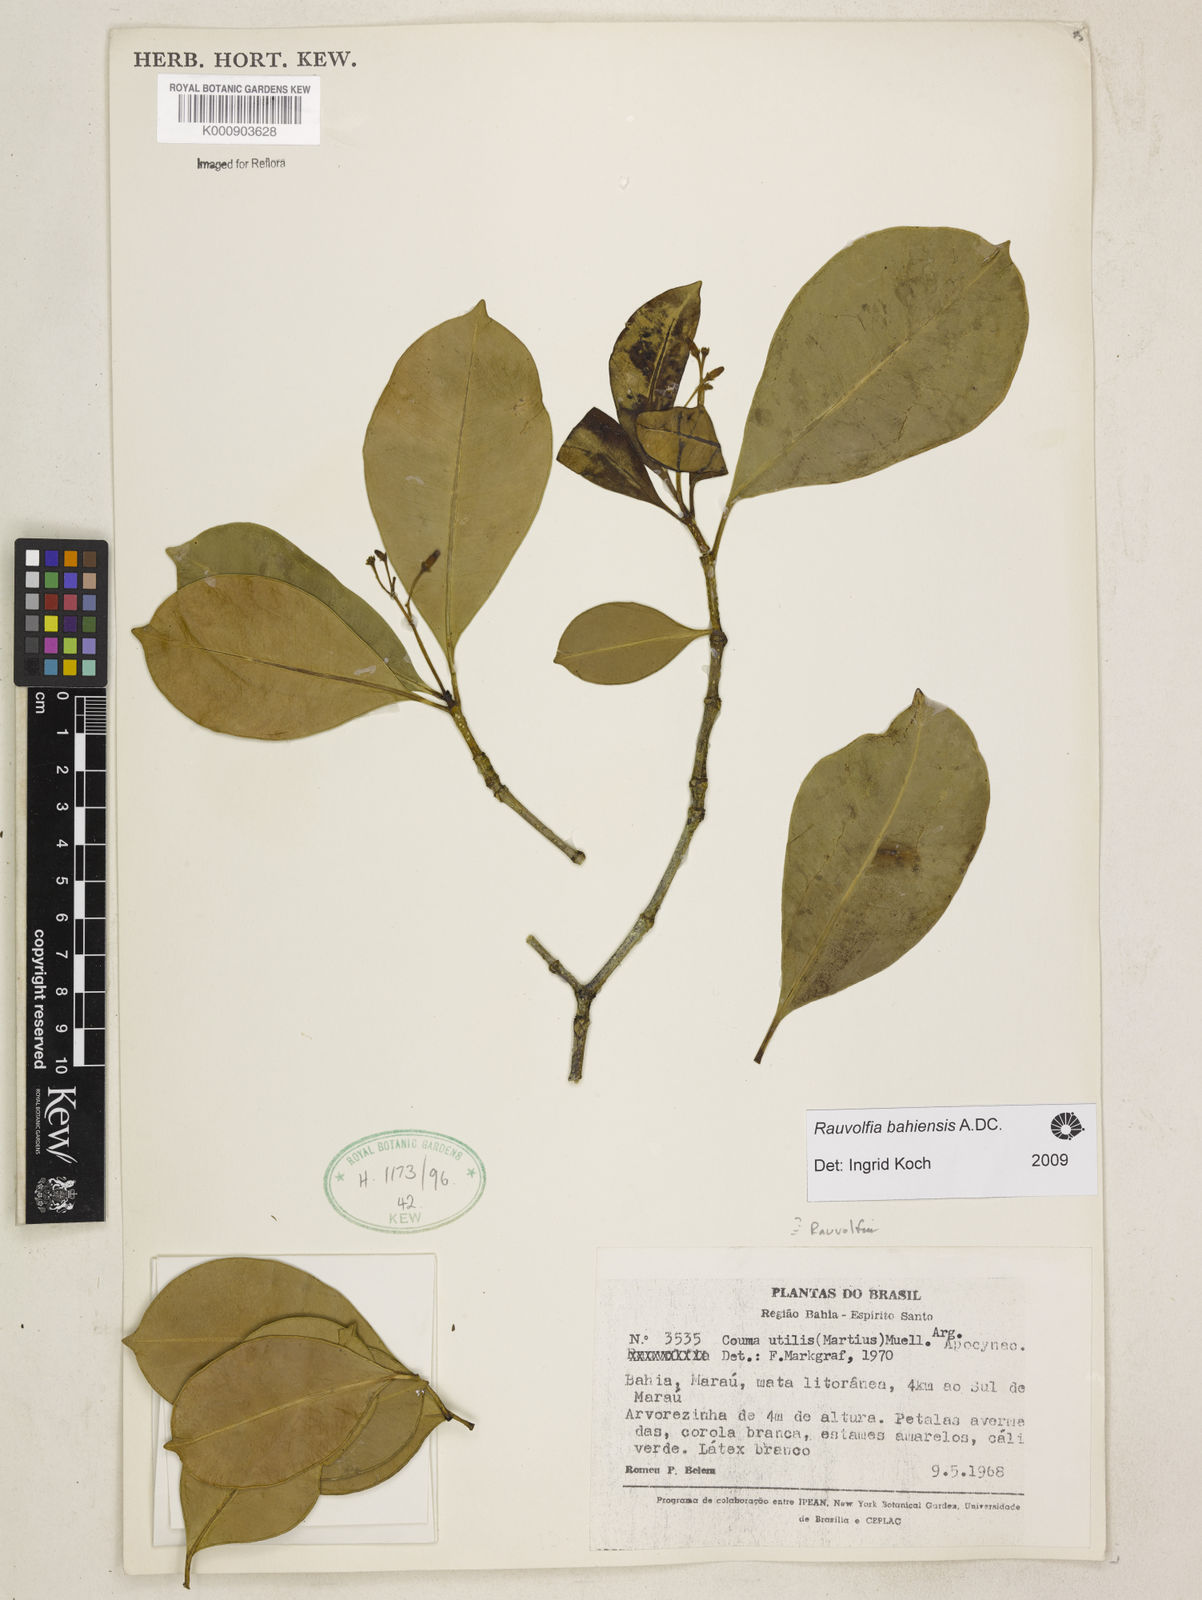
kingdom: Plantae
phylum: Tracheophyta
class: Magnoliopsida
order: Gentianales
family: Apocynaceae
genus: Rauvolfia
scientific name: Rauvolfia bahiensis
